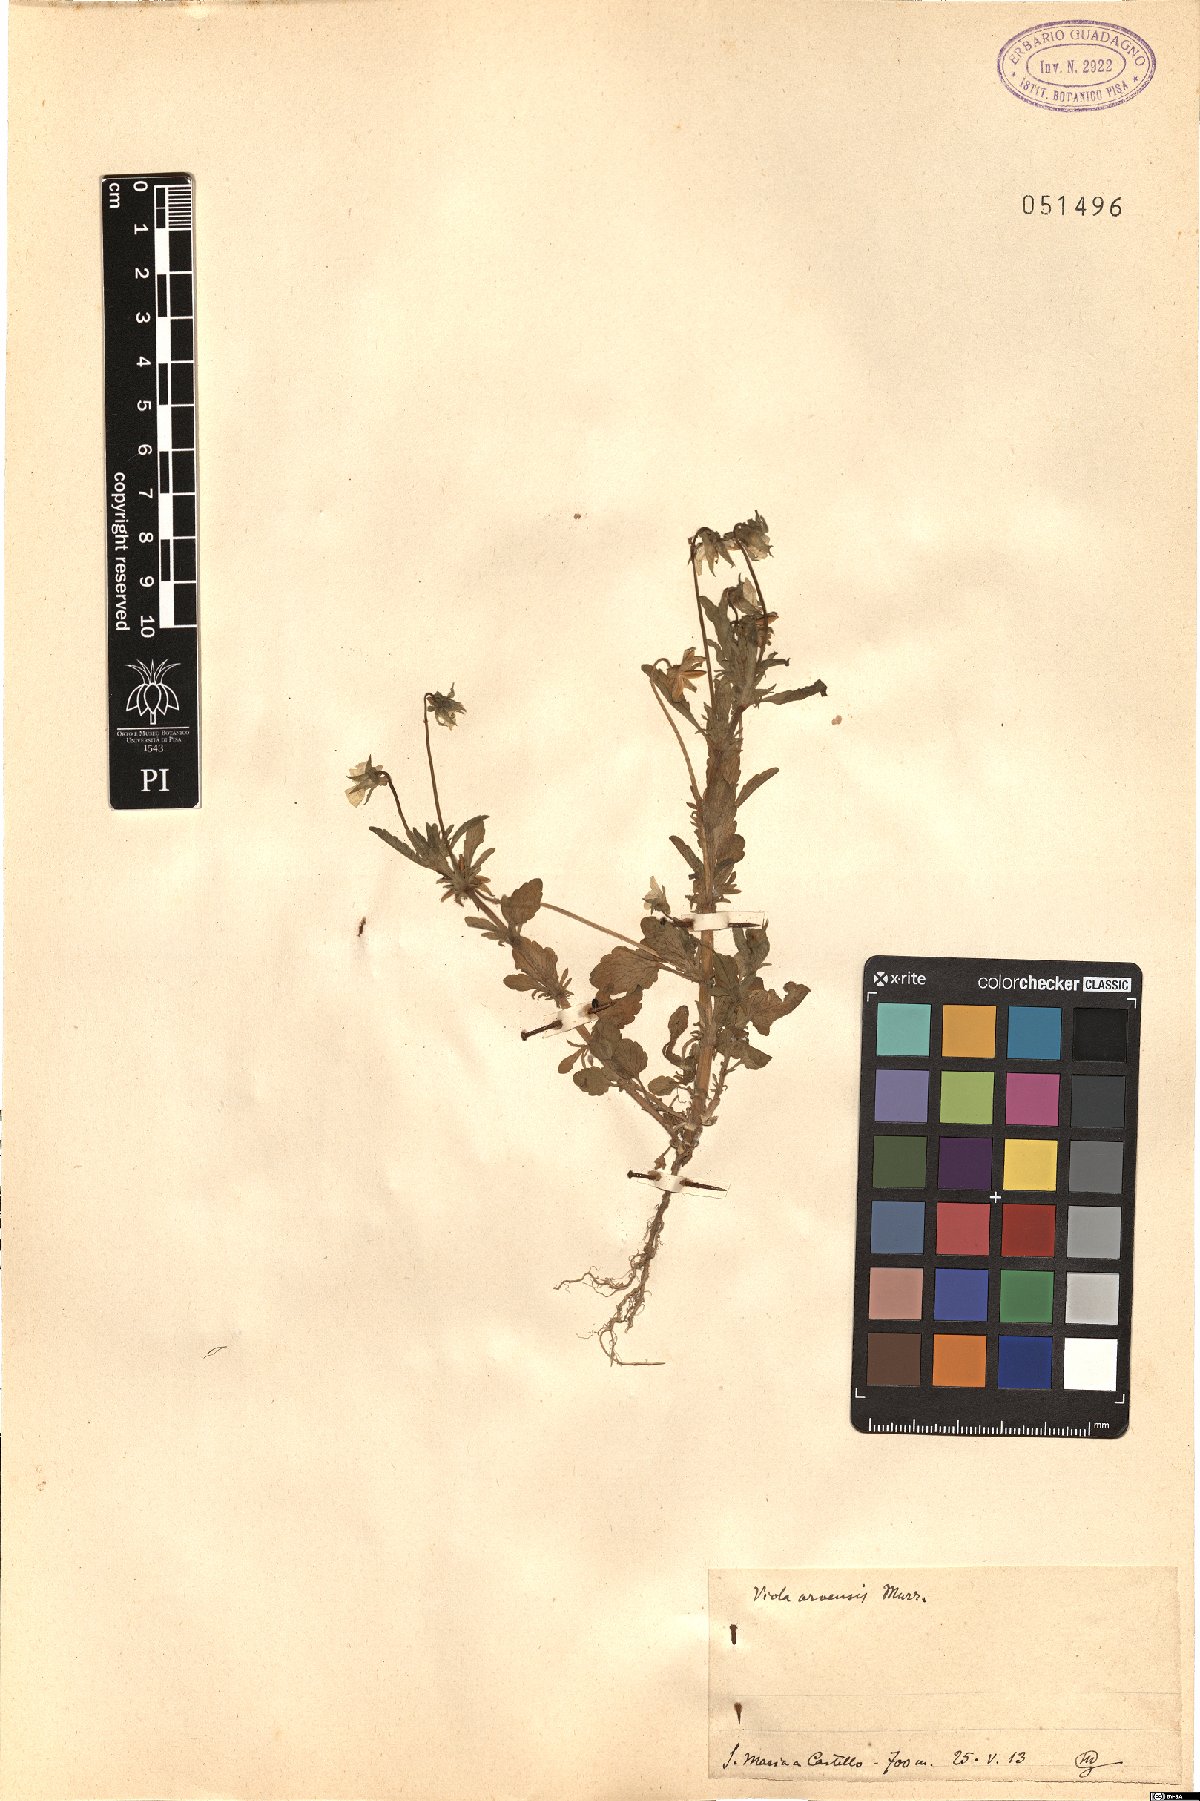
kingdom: Plantae
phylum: Tracheophyta
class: Magnoliopsida
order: Malpighiales
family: Violaceae
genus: Viola
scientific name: Viola arvensis
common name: Field pansy
